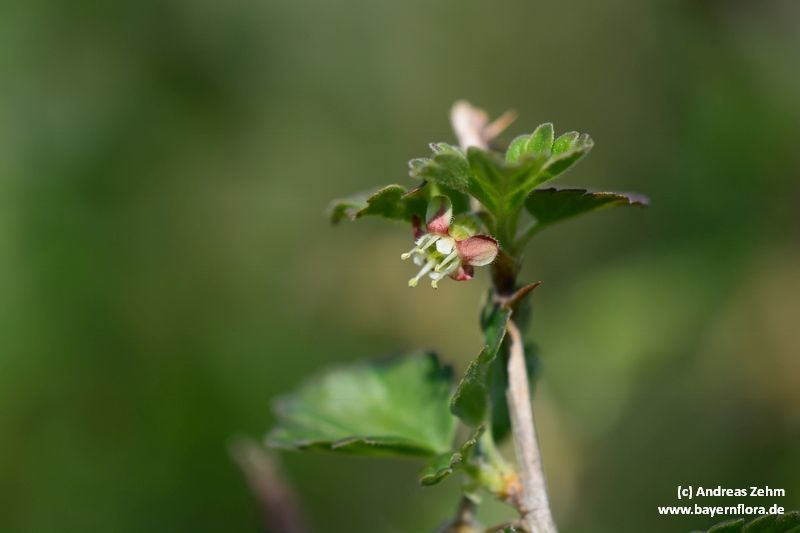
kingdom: Plantae
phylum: Tracheophyta
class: Magnoliopsida
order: Saxifragales
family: Grossulariaceae
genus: Ribes
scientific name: Ribes uva-crispa
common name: Gooseberry
